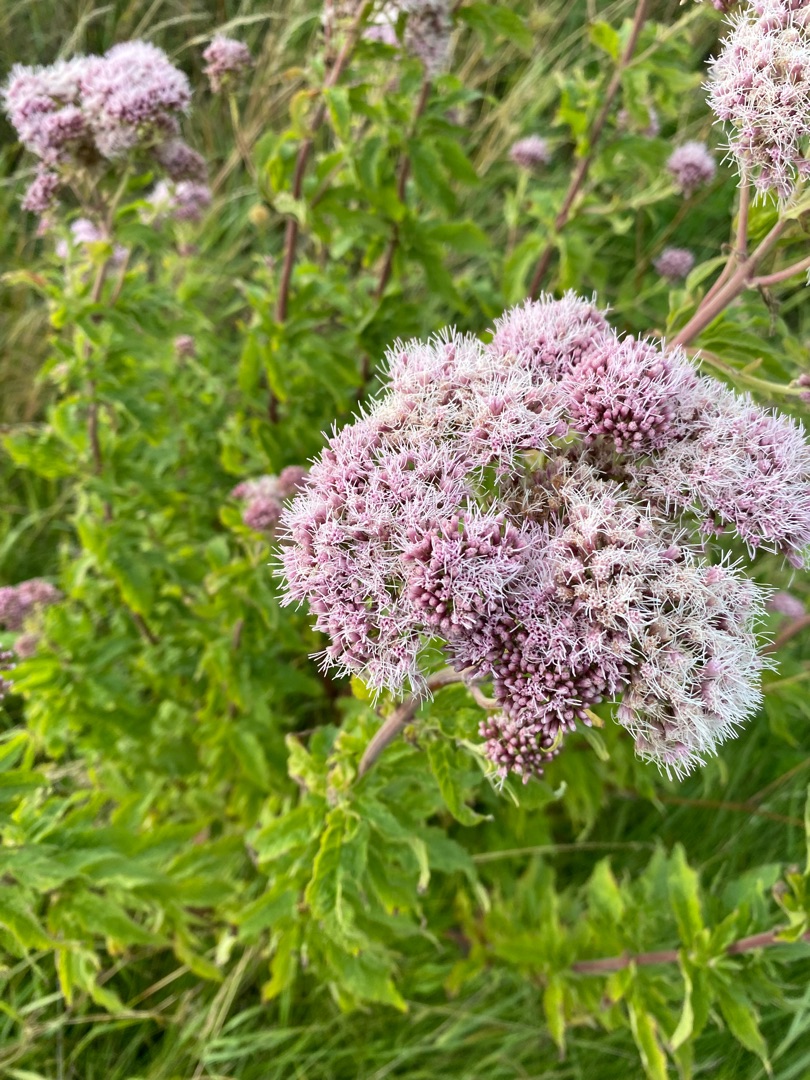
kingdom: Plantae
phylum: Tracheophyta
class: Magnoliopsida
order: Asterales
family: Asteraceae
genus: Eupatorium
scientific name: Eupatorium cannabinum
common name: Hjortetrøst
